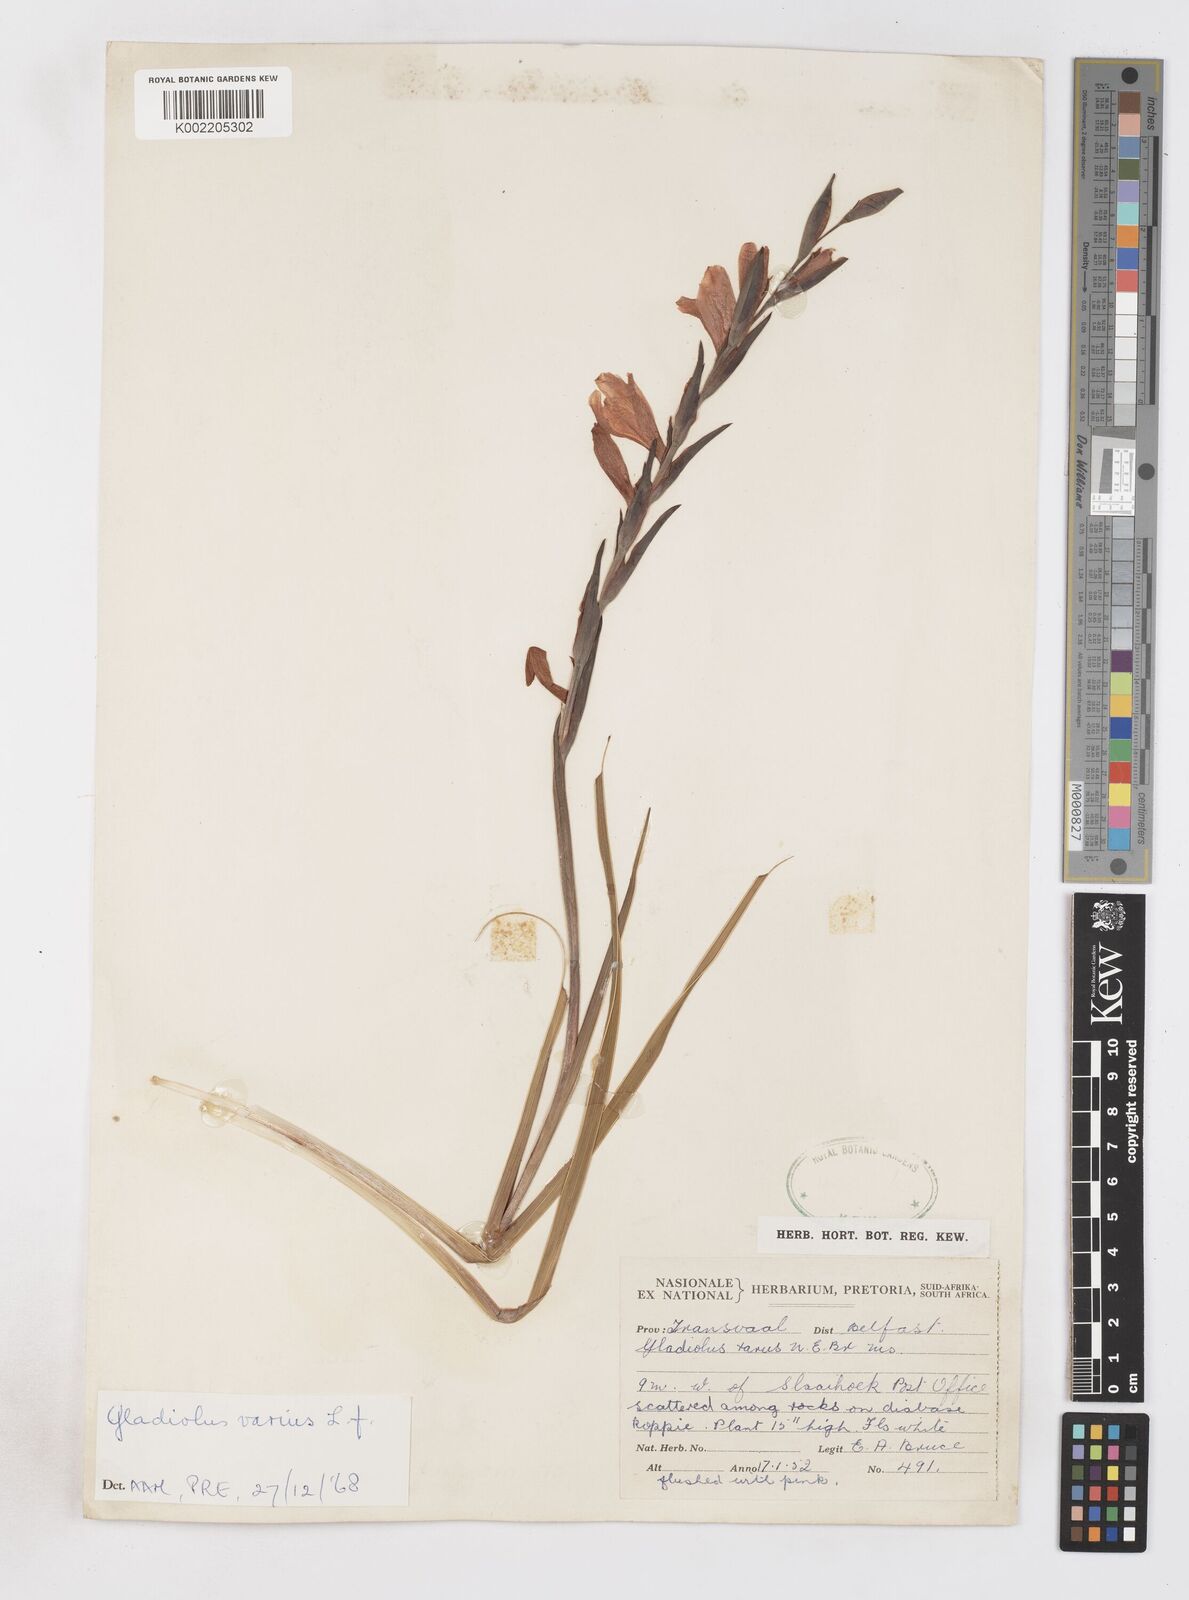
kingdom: Plantae
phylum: Tracheophyta
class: Liliopsida
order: Asparagales
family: Iridaceae
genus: Gladiolus
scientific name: Gladiolus exiguus
